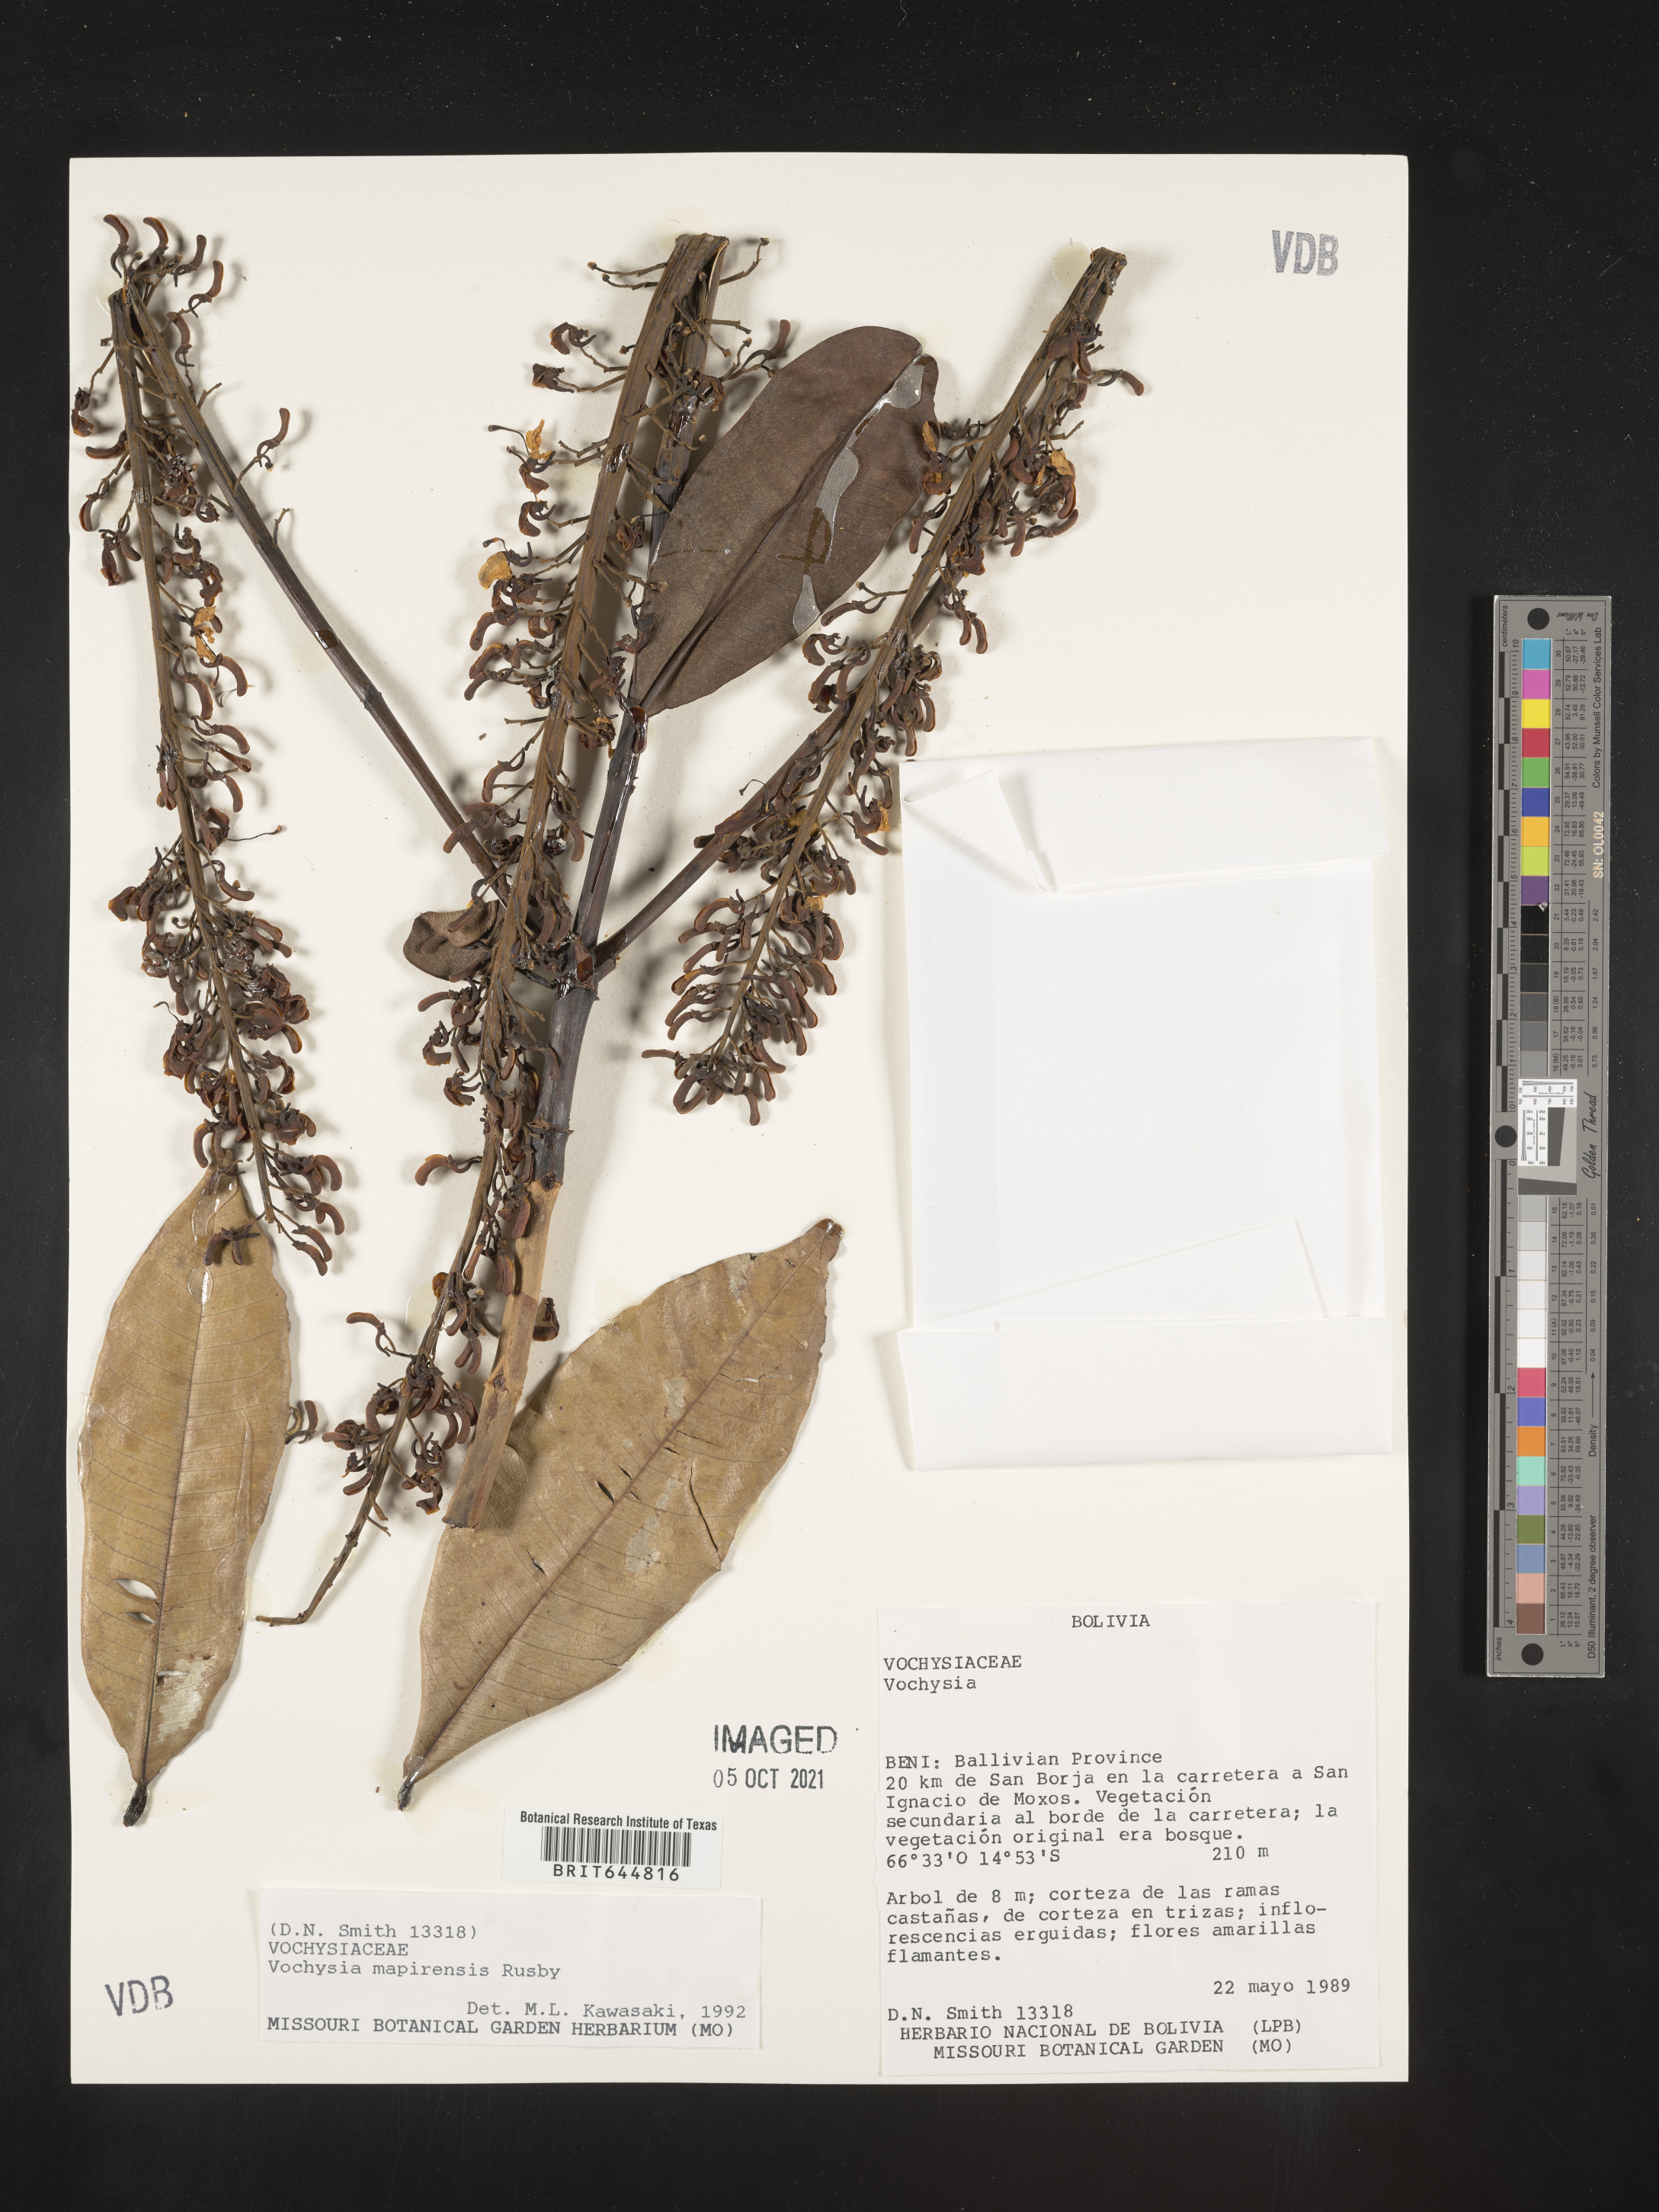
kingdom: Plantae
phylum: Tracheophyta
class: Magnoliopsida
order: Myrtales
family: Vochysiaceae
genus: Vochysia
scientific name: Vochysia
